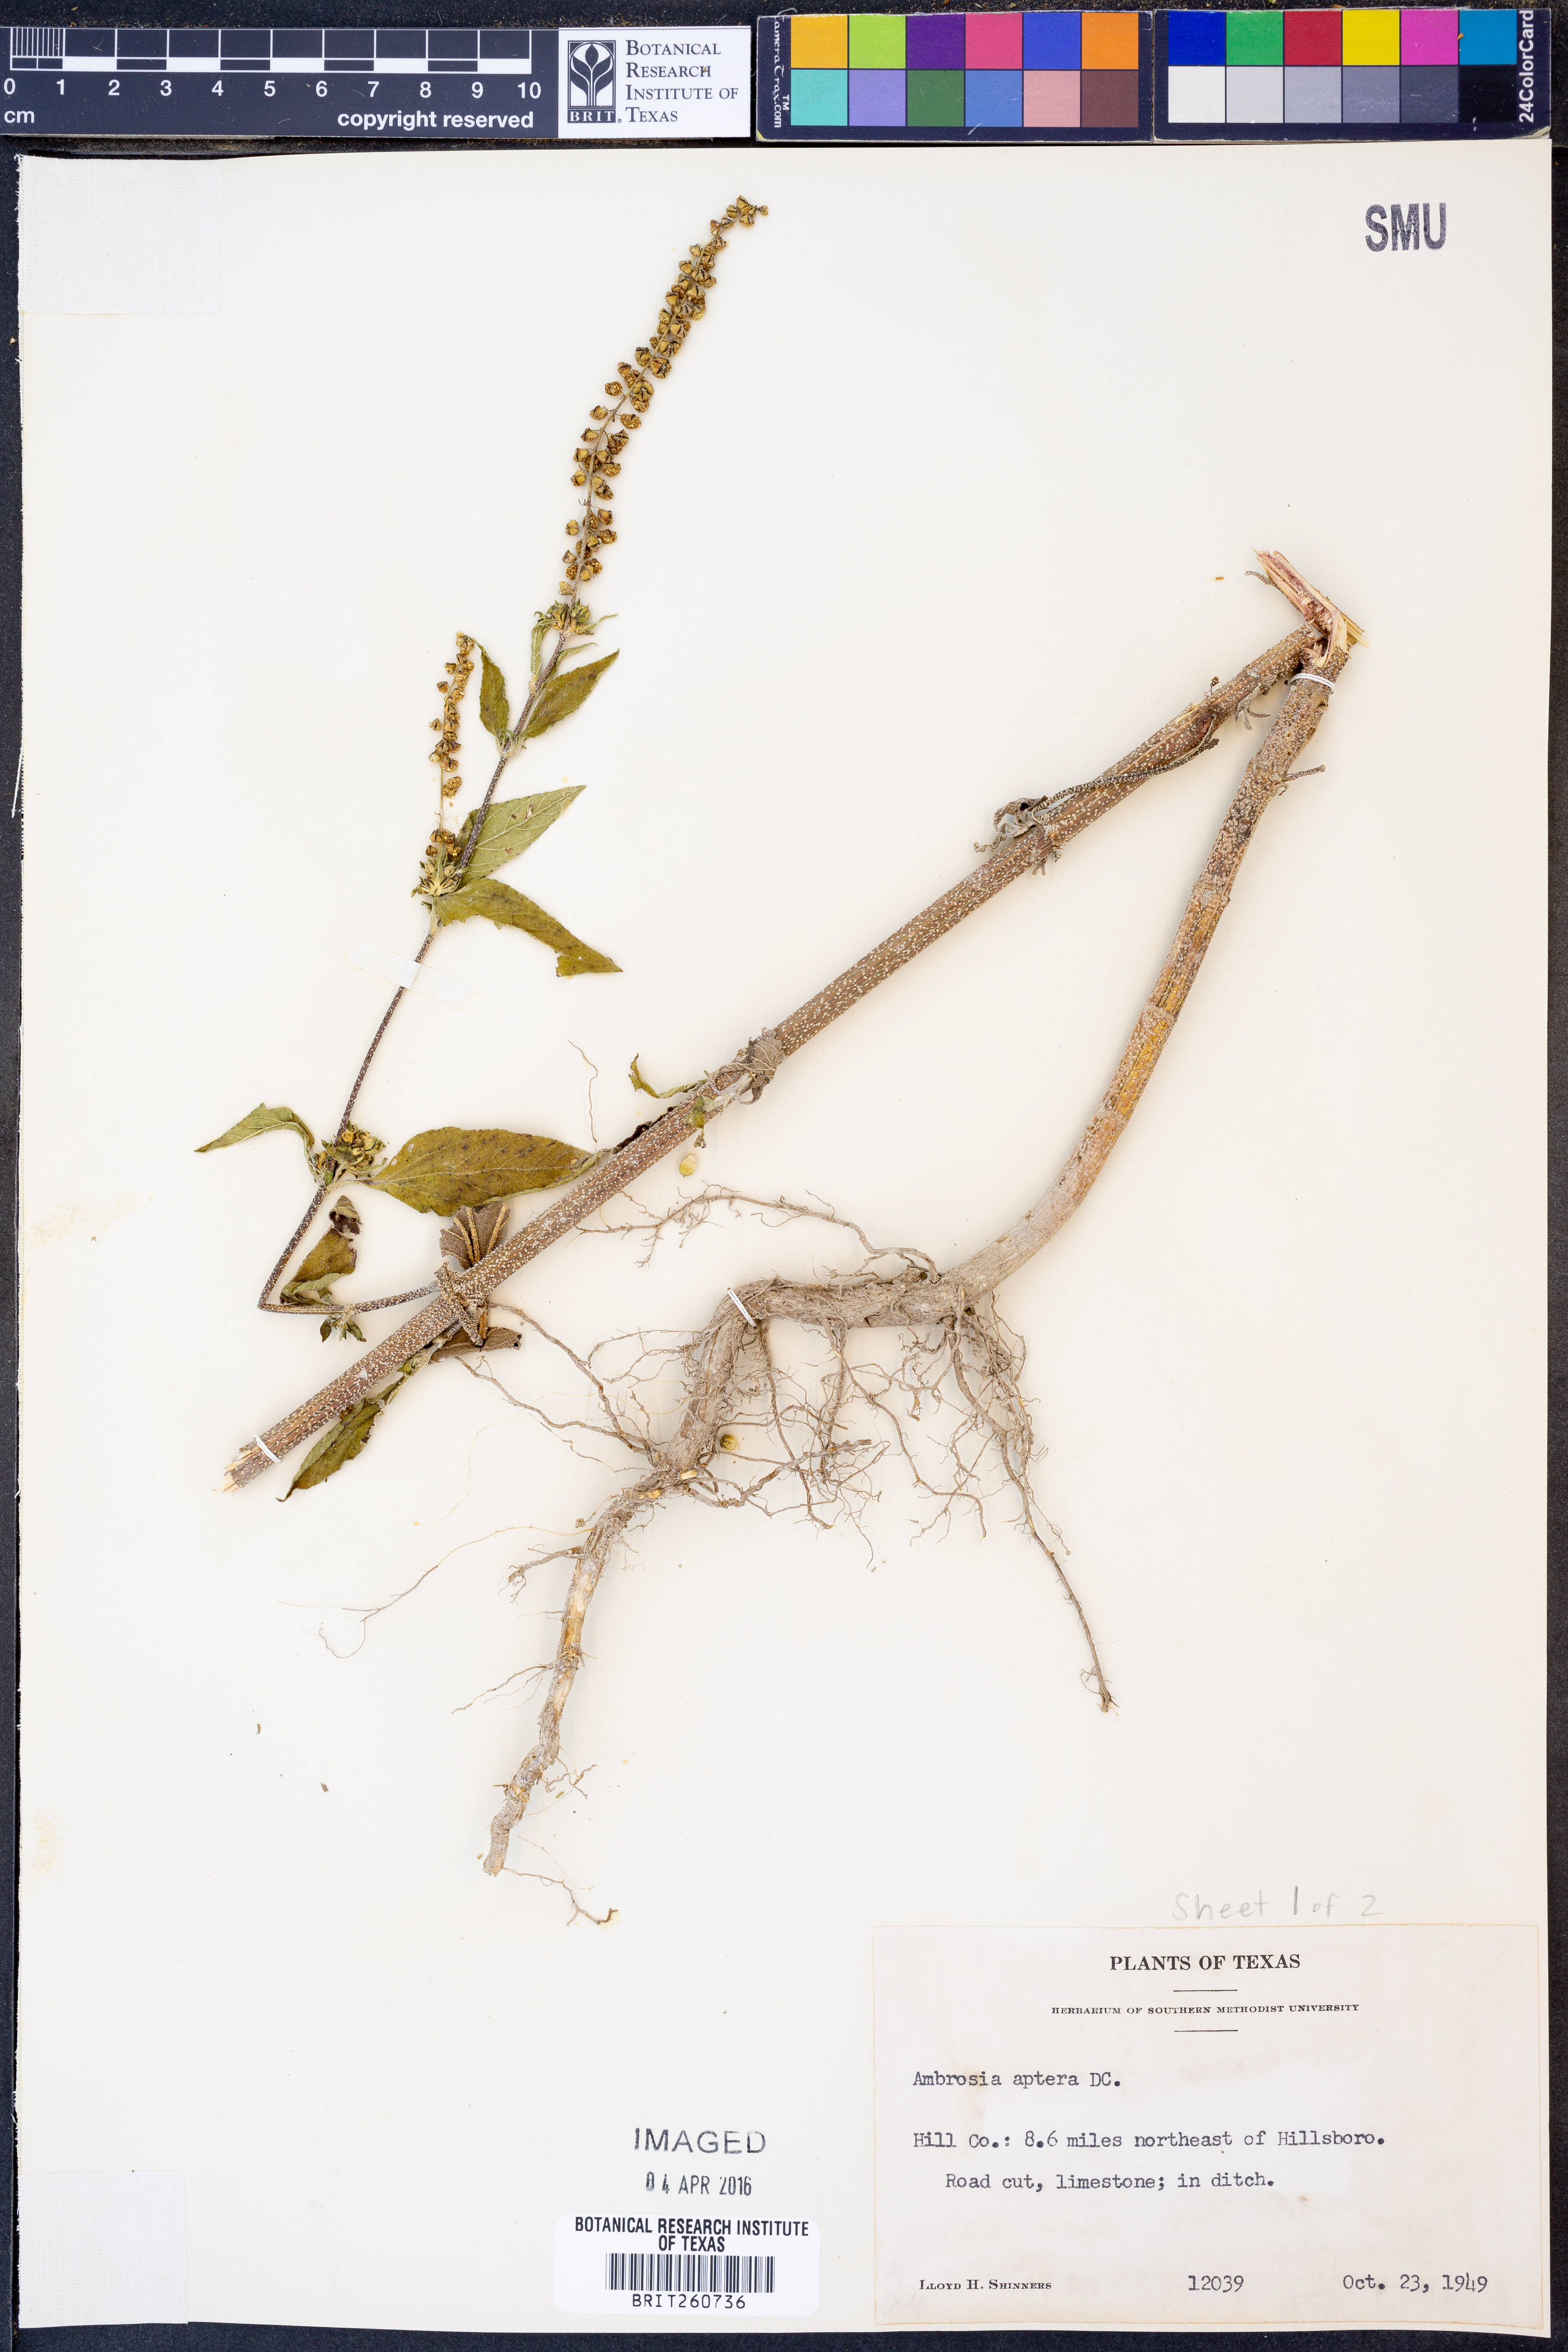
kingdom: Plantae
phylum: Tracheophyta
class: Magnoliopsida
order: Asterales
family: Asteraceae
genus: Ambrosia
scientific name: Ambrosia trifida
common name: Giant ragweed
